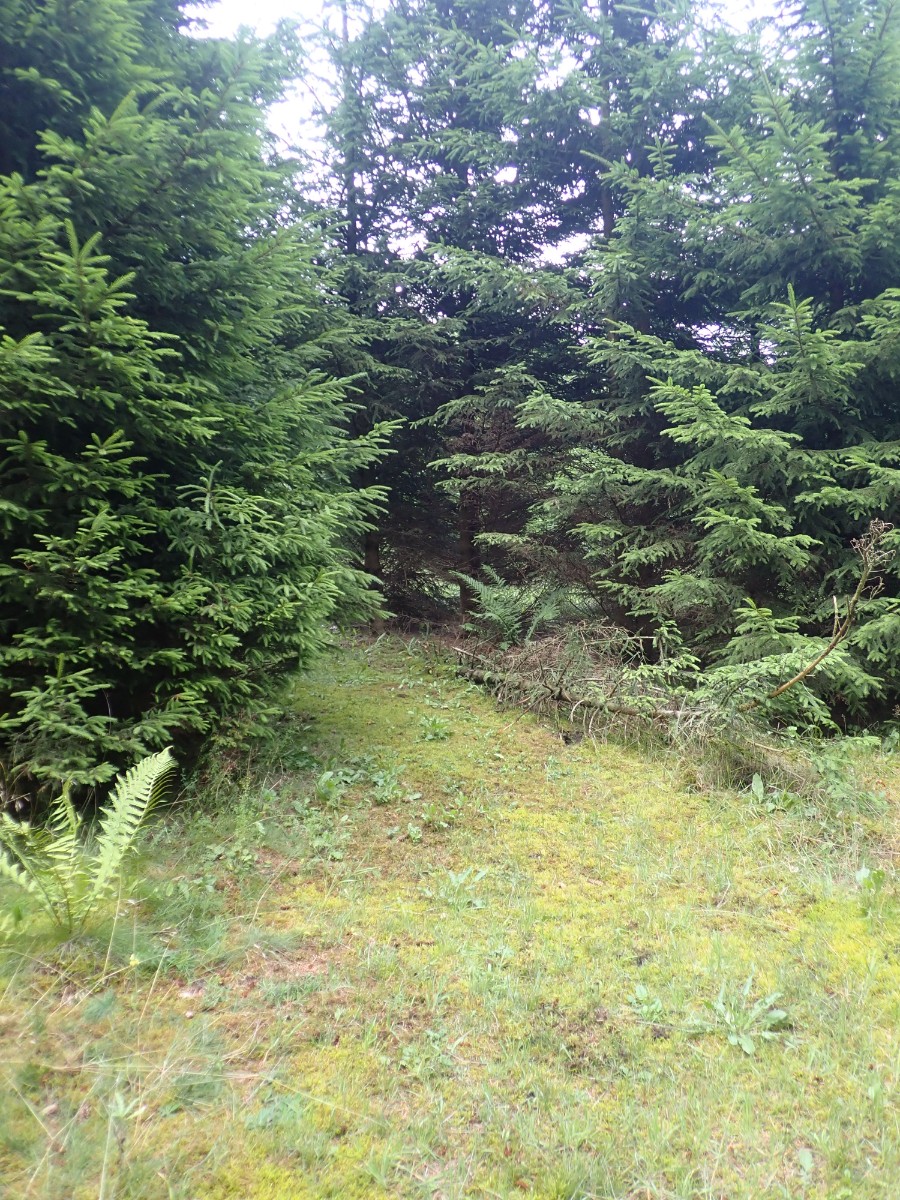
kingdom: Fungi
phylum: Basidiomycota
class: Agaricomycetes
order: Agaricales
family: Omphalotaceae
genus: Gymnopus
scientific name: Gymnopus dryophilus
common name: løv-fladhat
